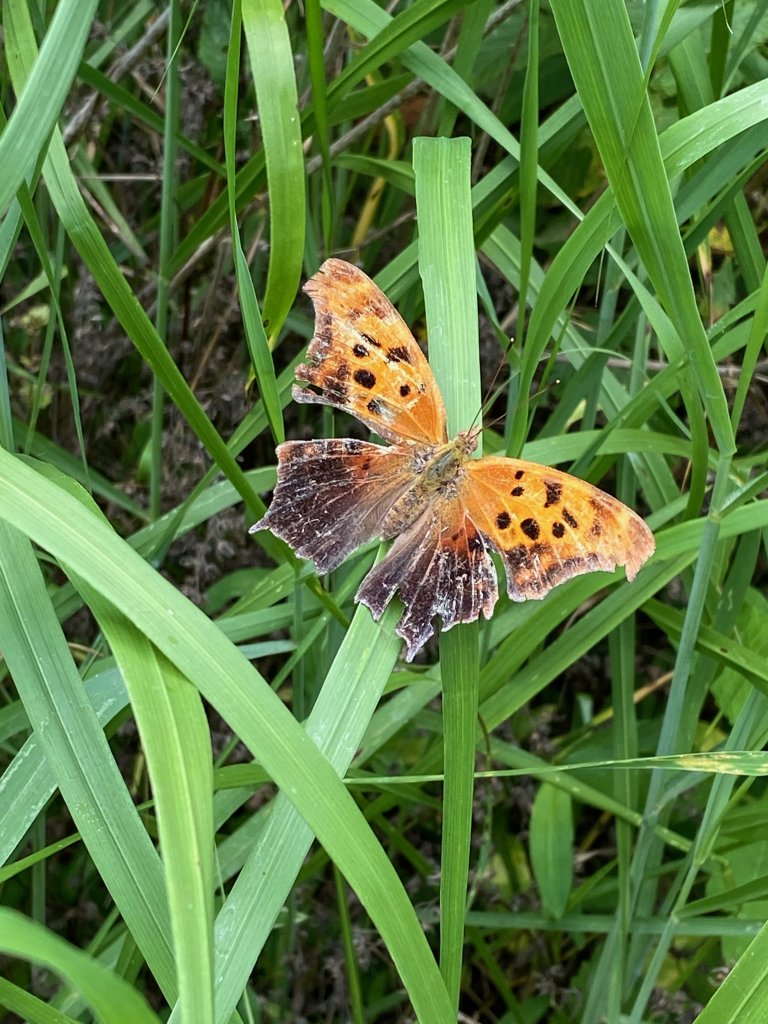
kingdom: Animalia
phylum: Arthropoda
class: Insecta
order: Lepidoptera
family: Nymphalidae
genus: Polygonia
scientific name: Polygonia interrogationis
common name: Question Mark
